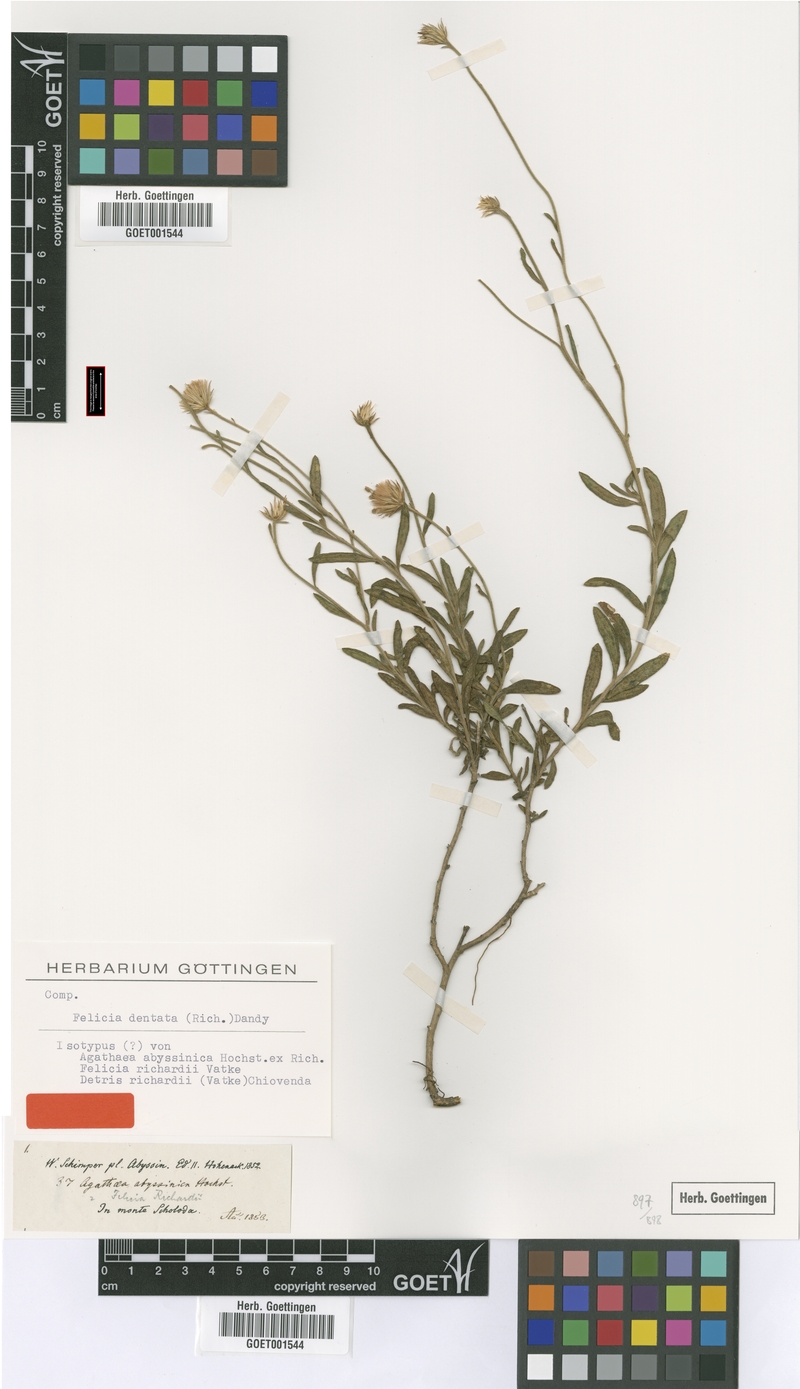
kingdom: Plantae
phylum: Tracheophyta
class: Magnoliopsida
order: Asterales
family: Asteraceae
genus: Felicia
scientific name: Felicia dentata
